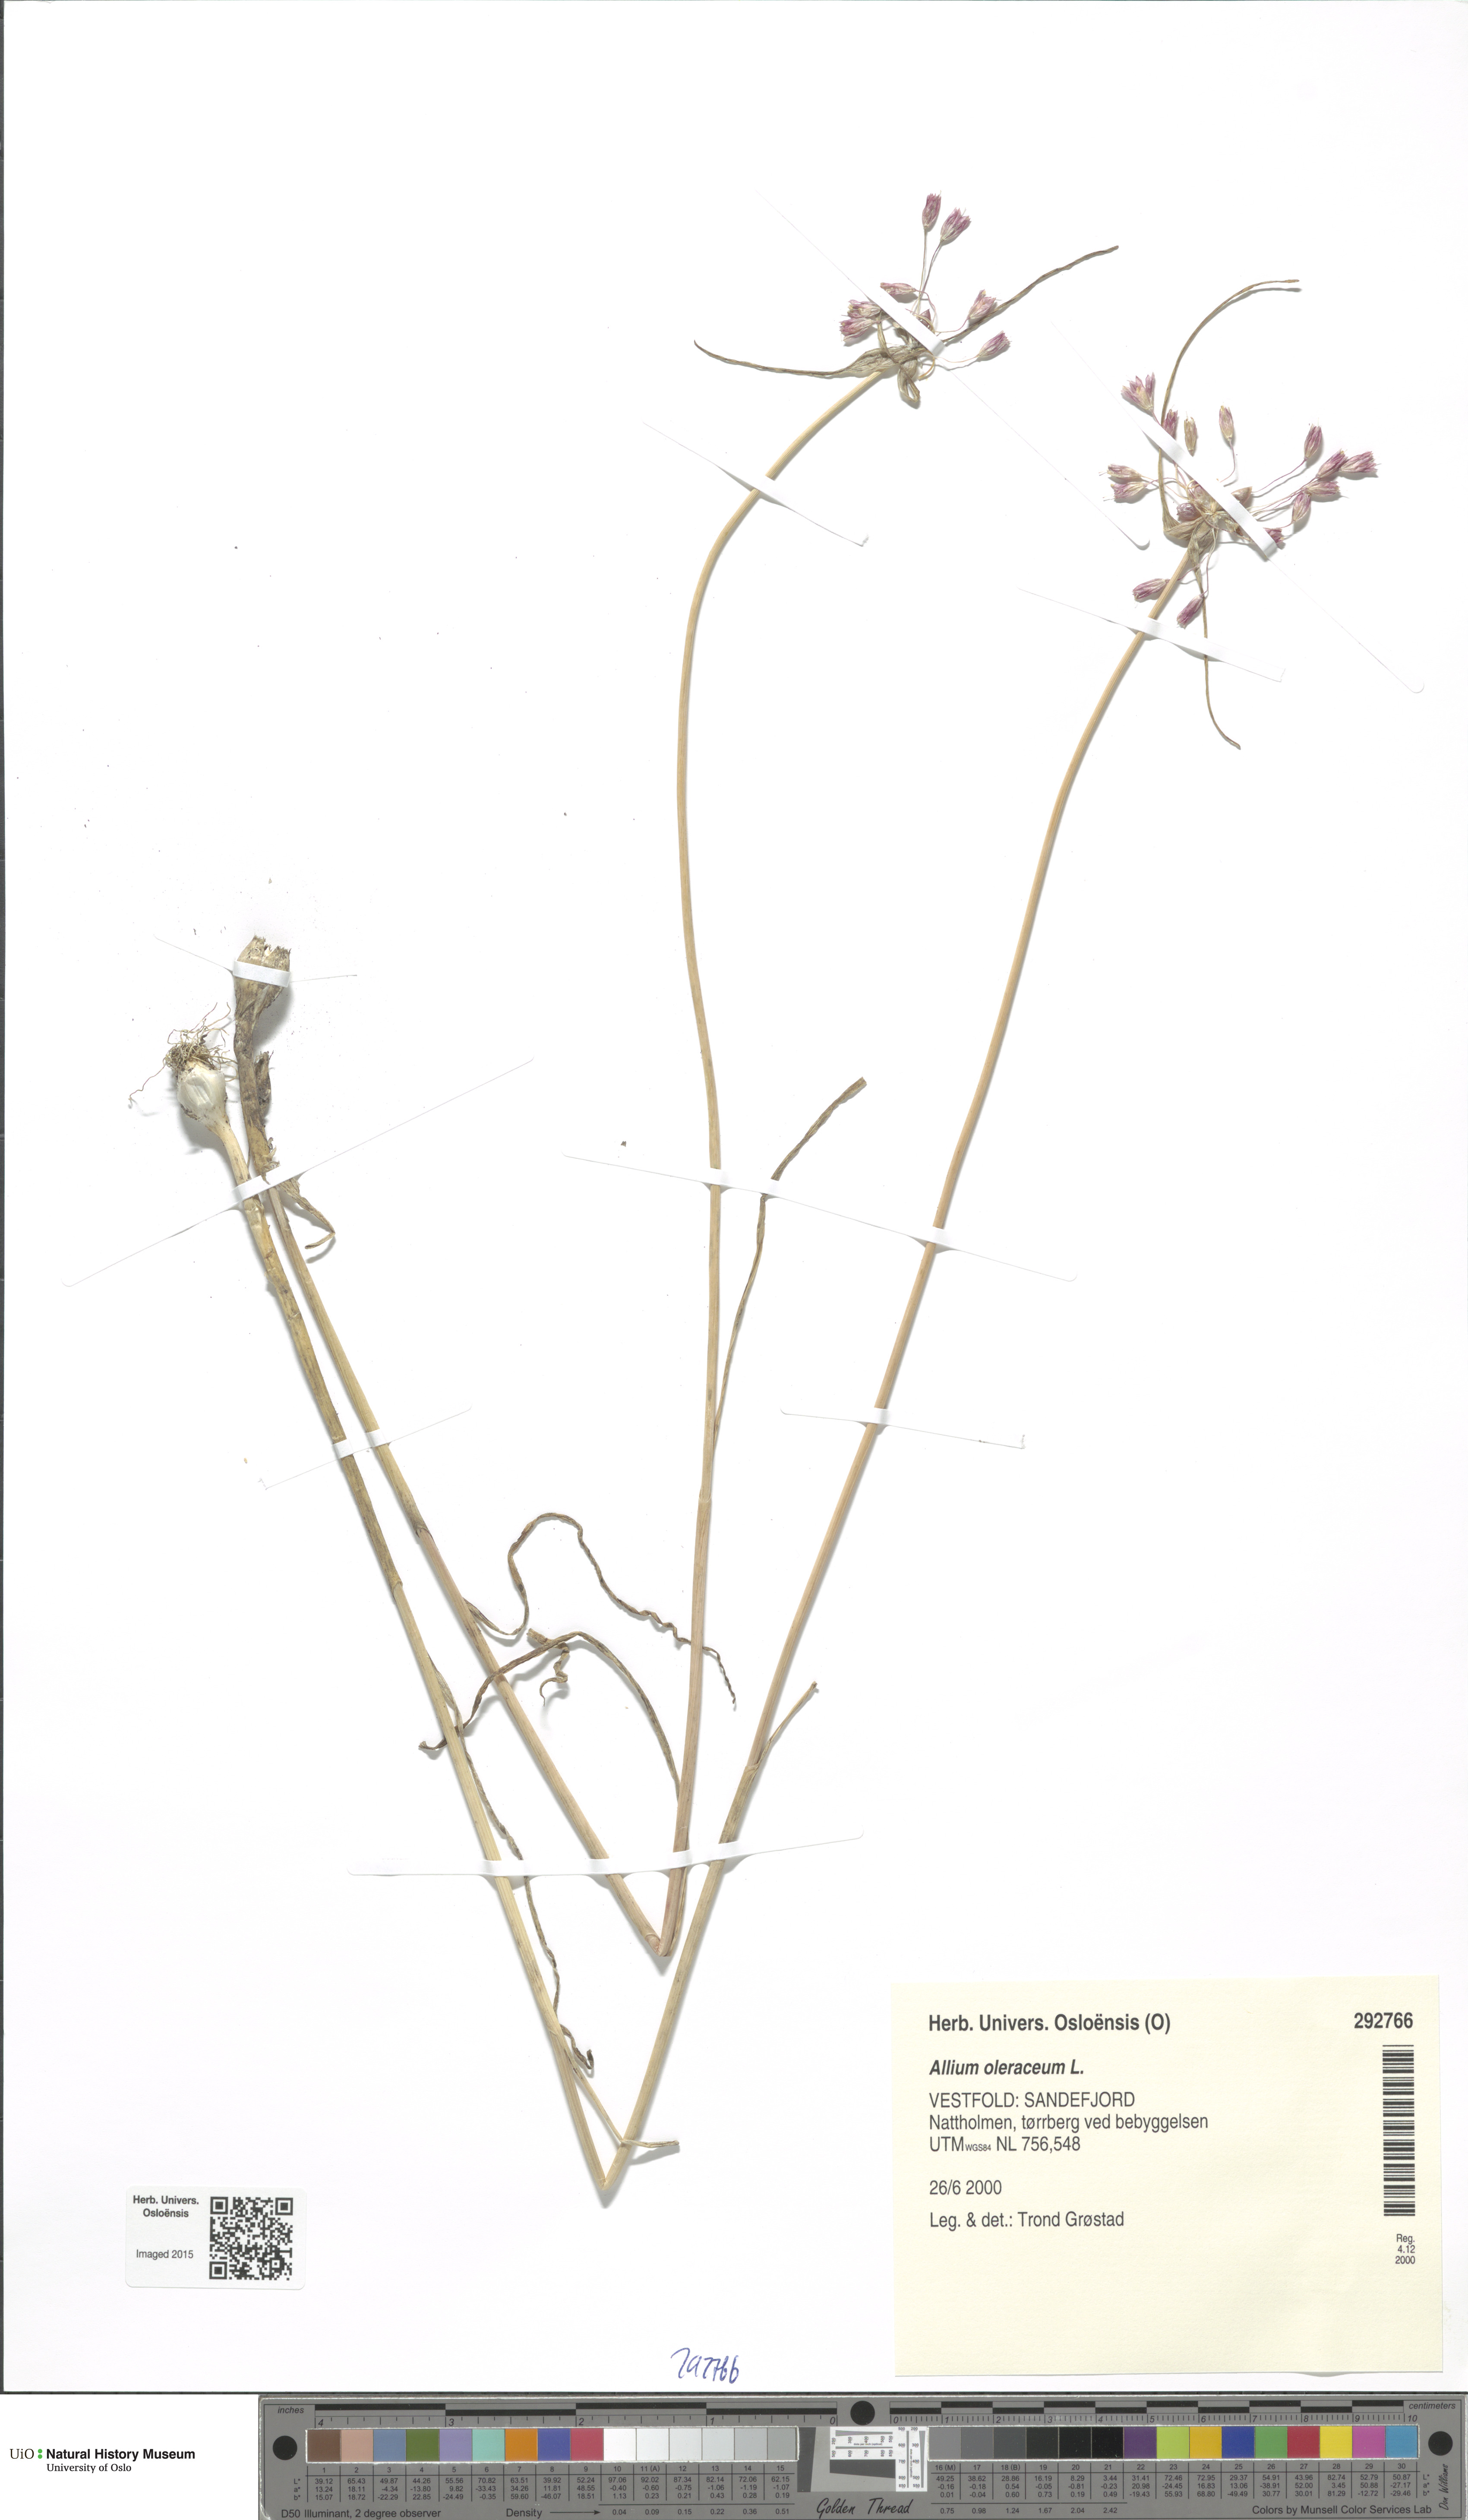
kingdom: Plantae
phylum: Tracheophyta
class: Liliopsida
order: Asparagales
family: Amaryllidaceae
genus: Allium
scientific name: Allium oleraceum
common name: Field garlic
